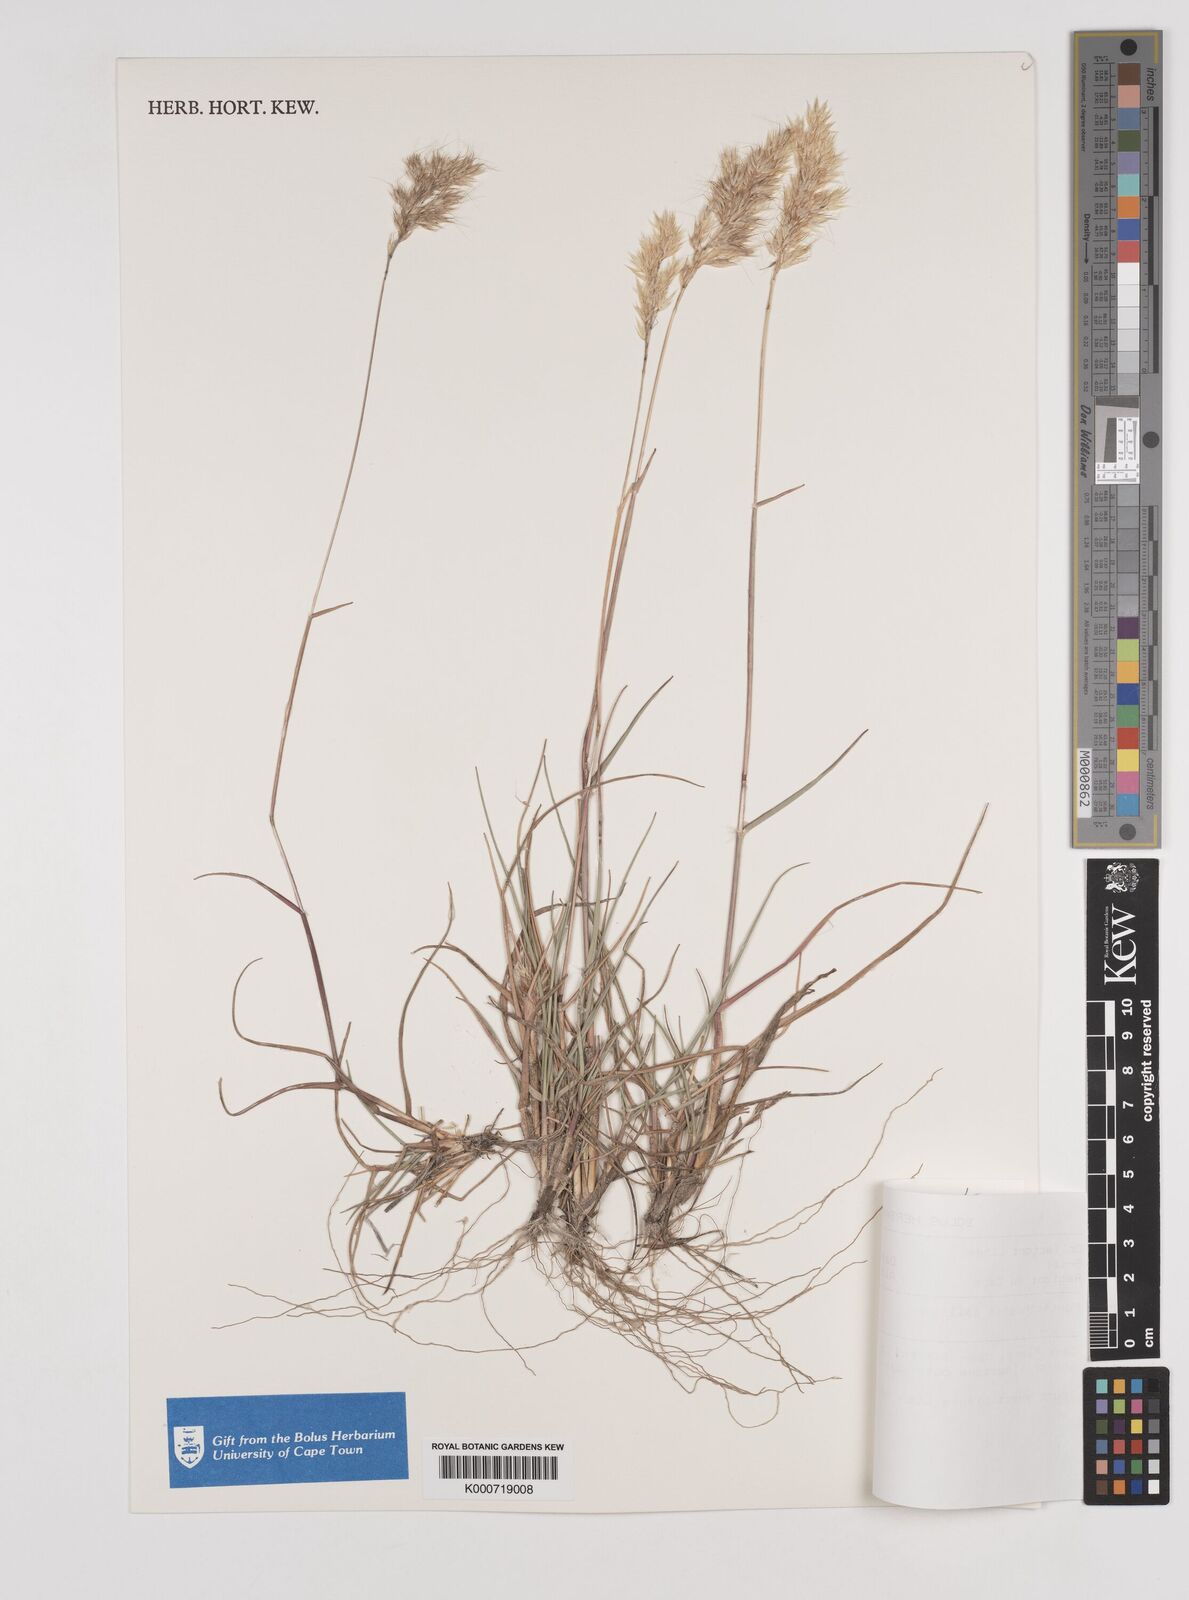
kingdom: Plantae
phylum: Tracheophyta
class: Liliopsida
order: Poales
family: Poaceae
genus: Pentameris
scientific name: Pentameris pallida
